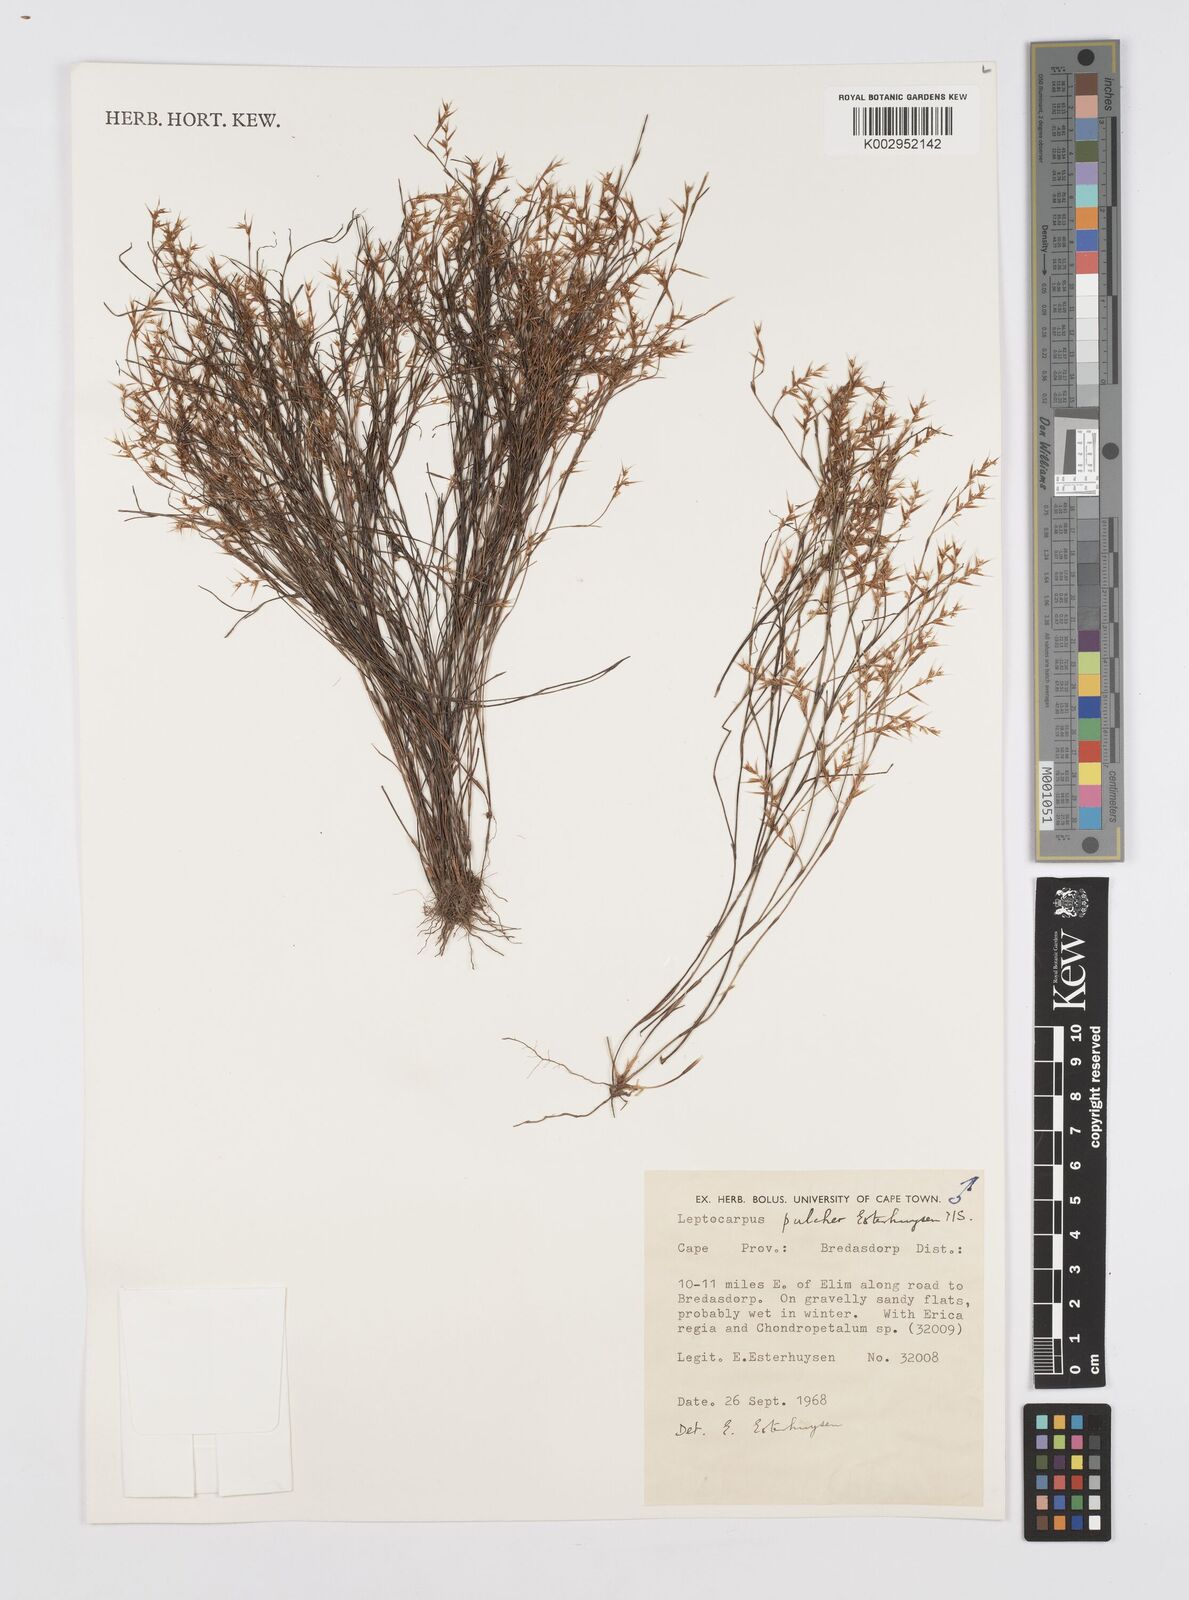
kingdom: Plantae
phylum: Tracheophyta
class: Liliopsida
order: Poales
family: Restionaceae
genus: Restio
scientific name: Restio pulcher
